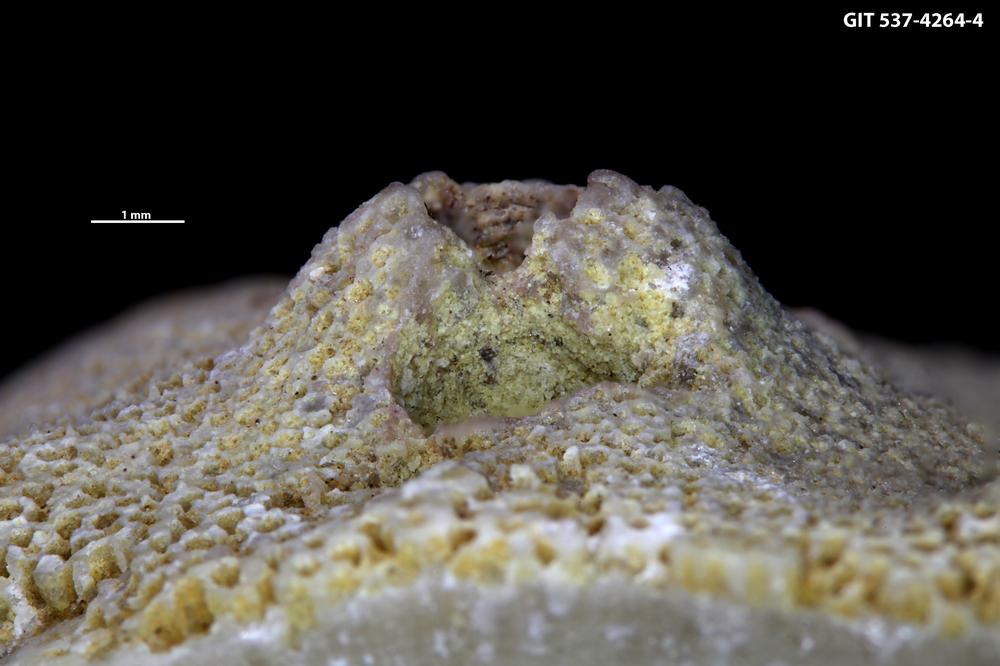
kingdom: Animalia
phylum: Cnidaria
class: Scyphozoa
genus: Climacoconus
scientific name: Climacoconus
